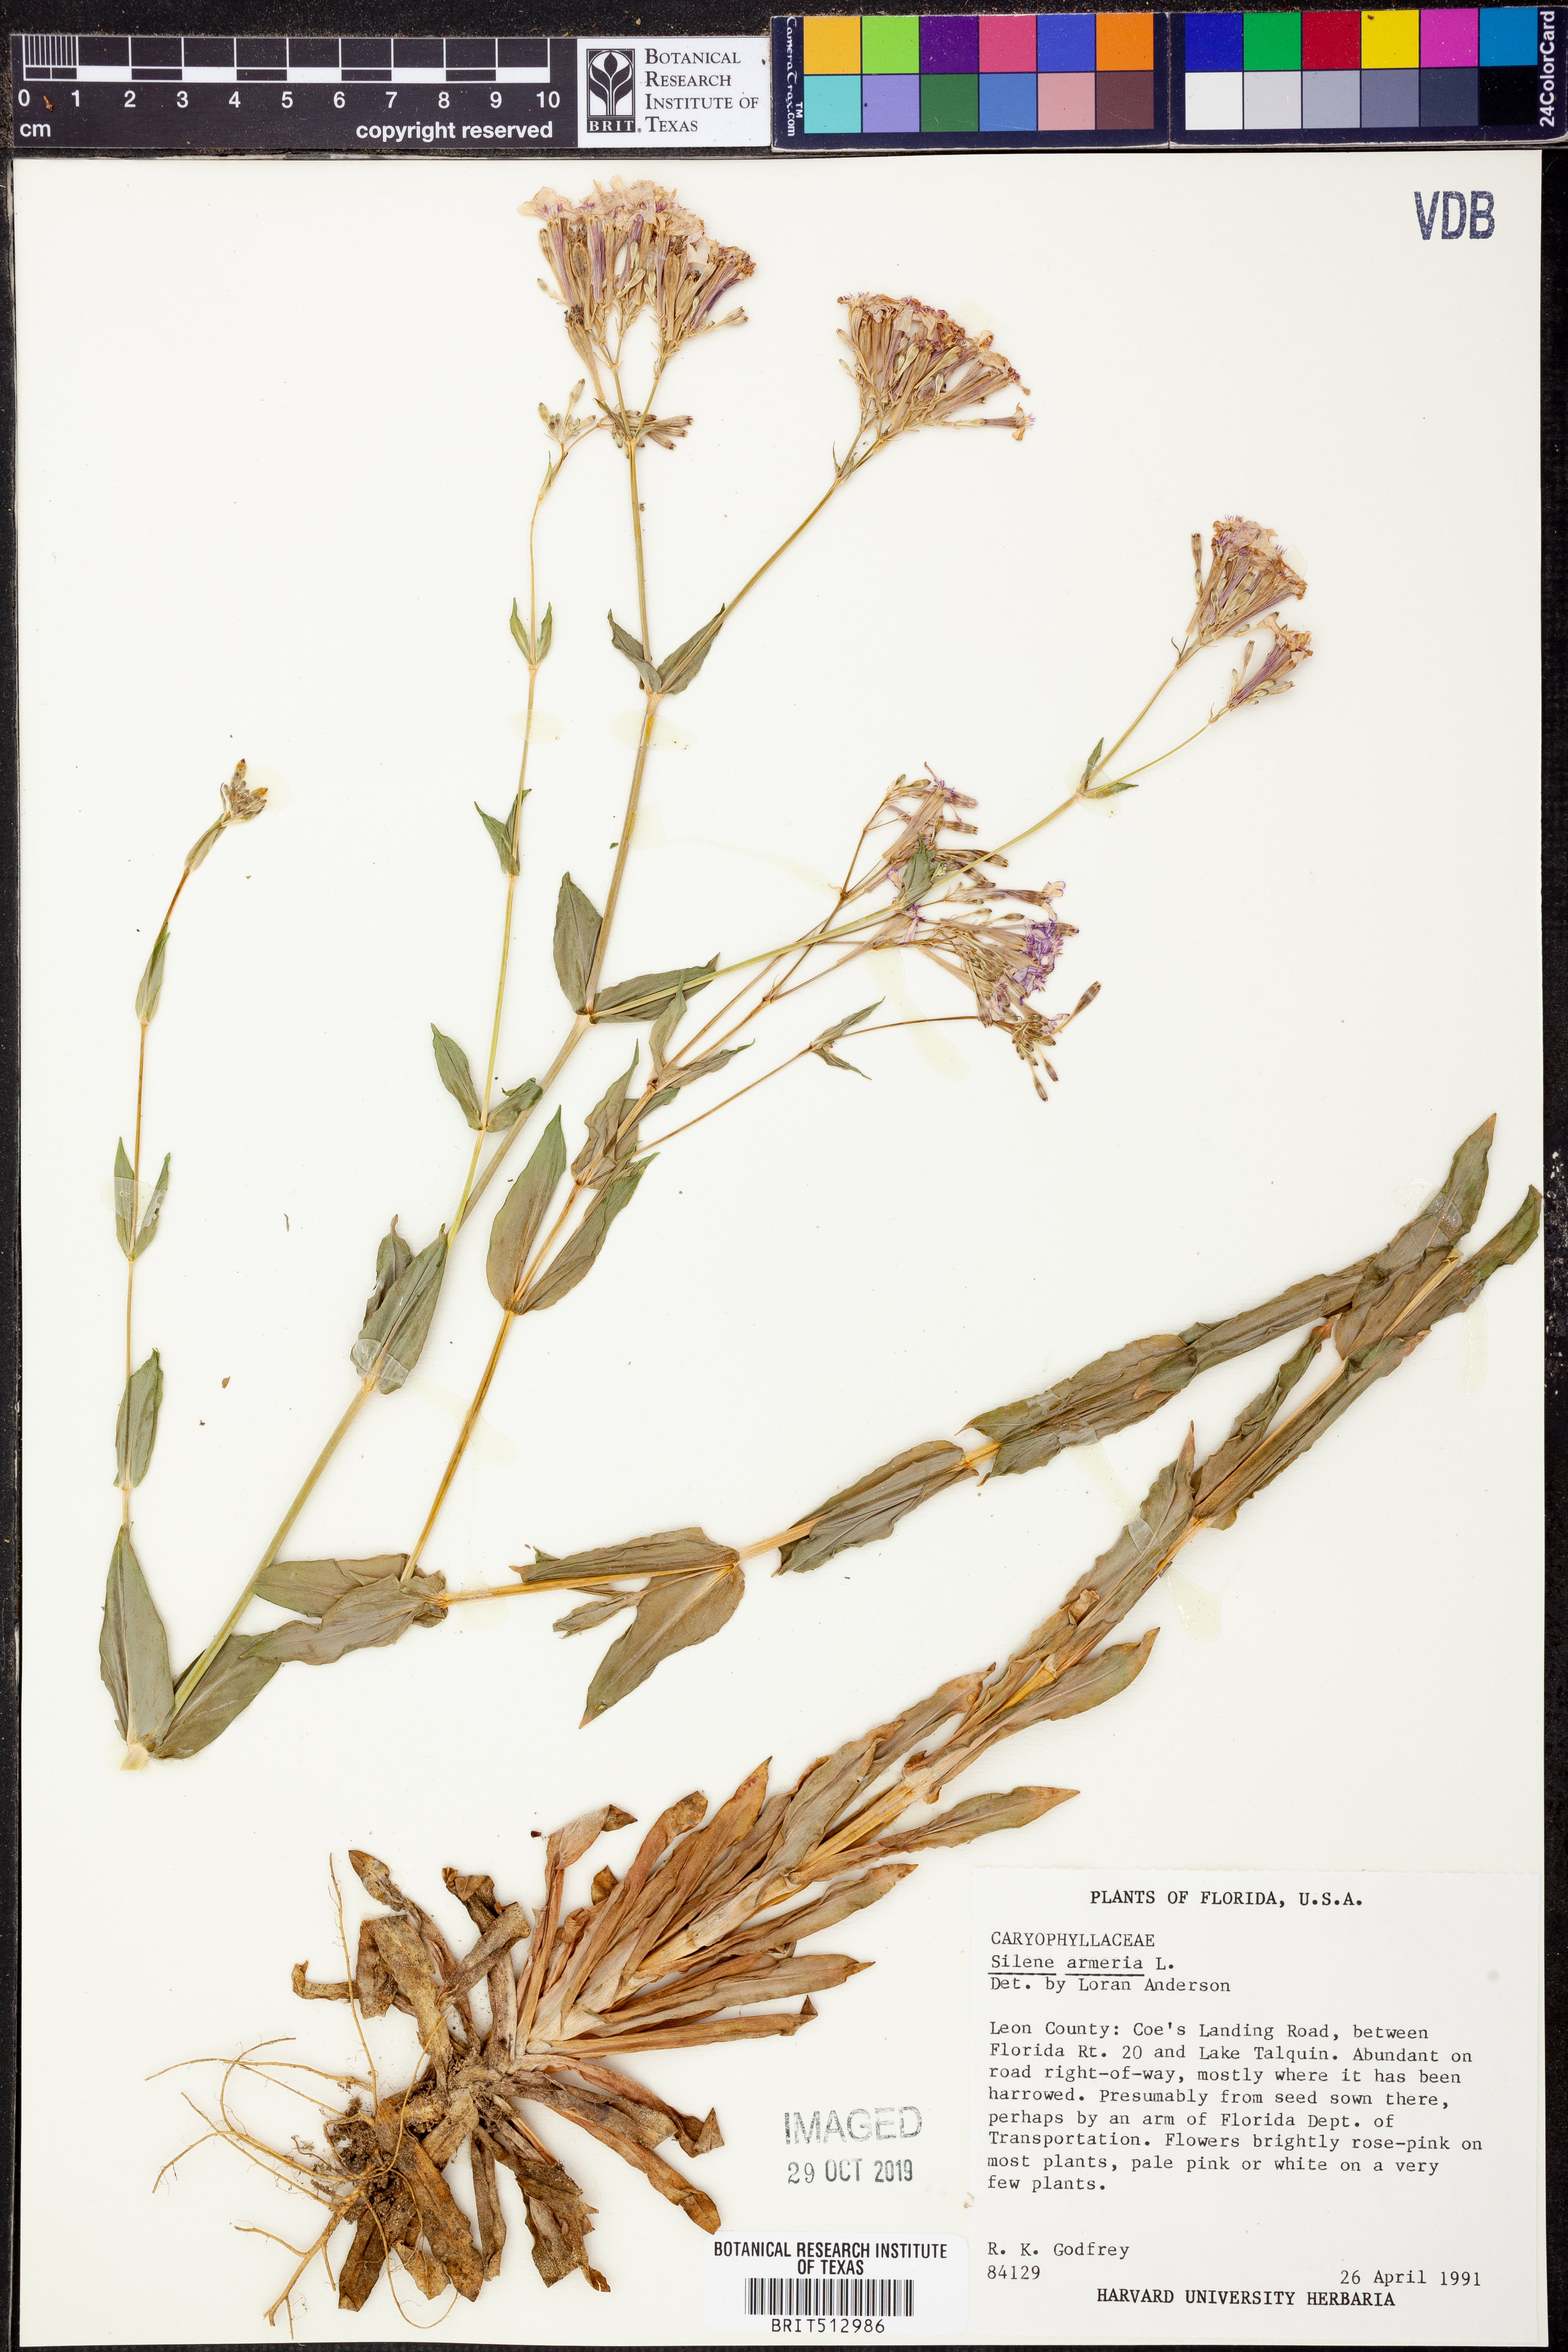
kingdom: Plantae
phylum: Tracheophyta
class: Magnoliopsida
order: Caryophyllales
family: Caryophyllaceae
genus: Atocion
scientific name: Atocion armeria
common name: Sweet william catchfly
